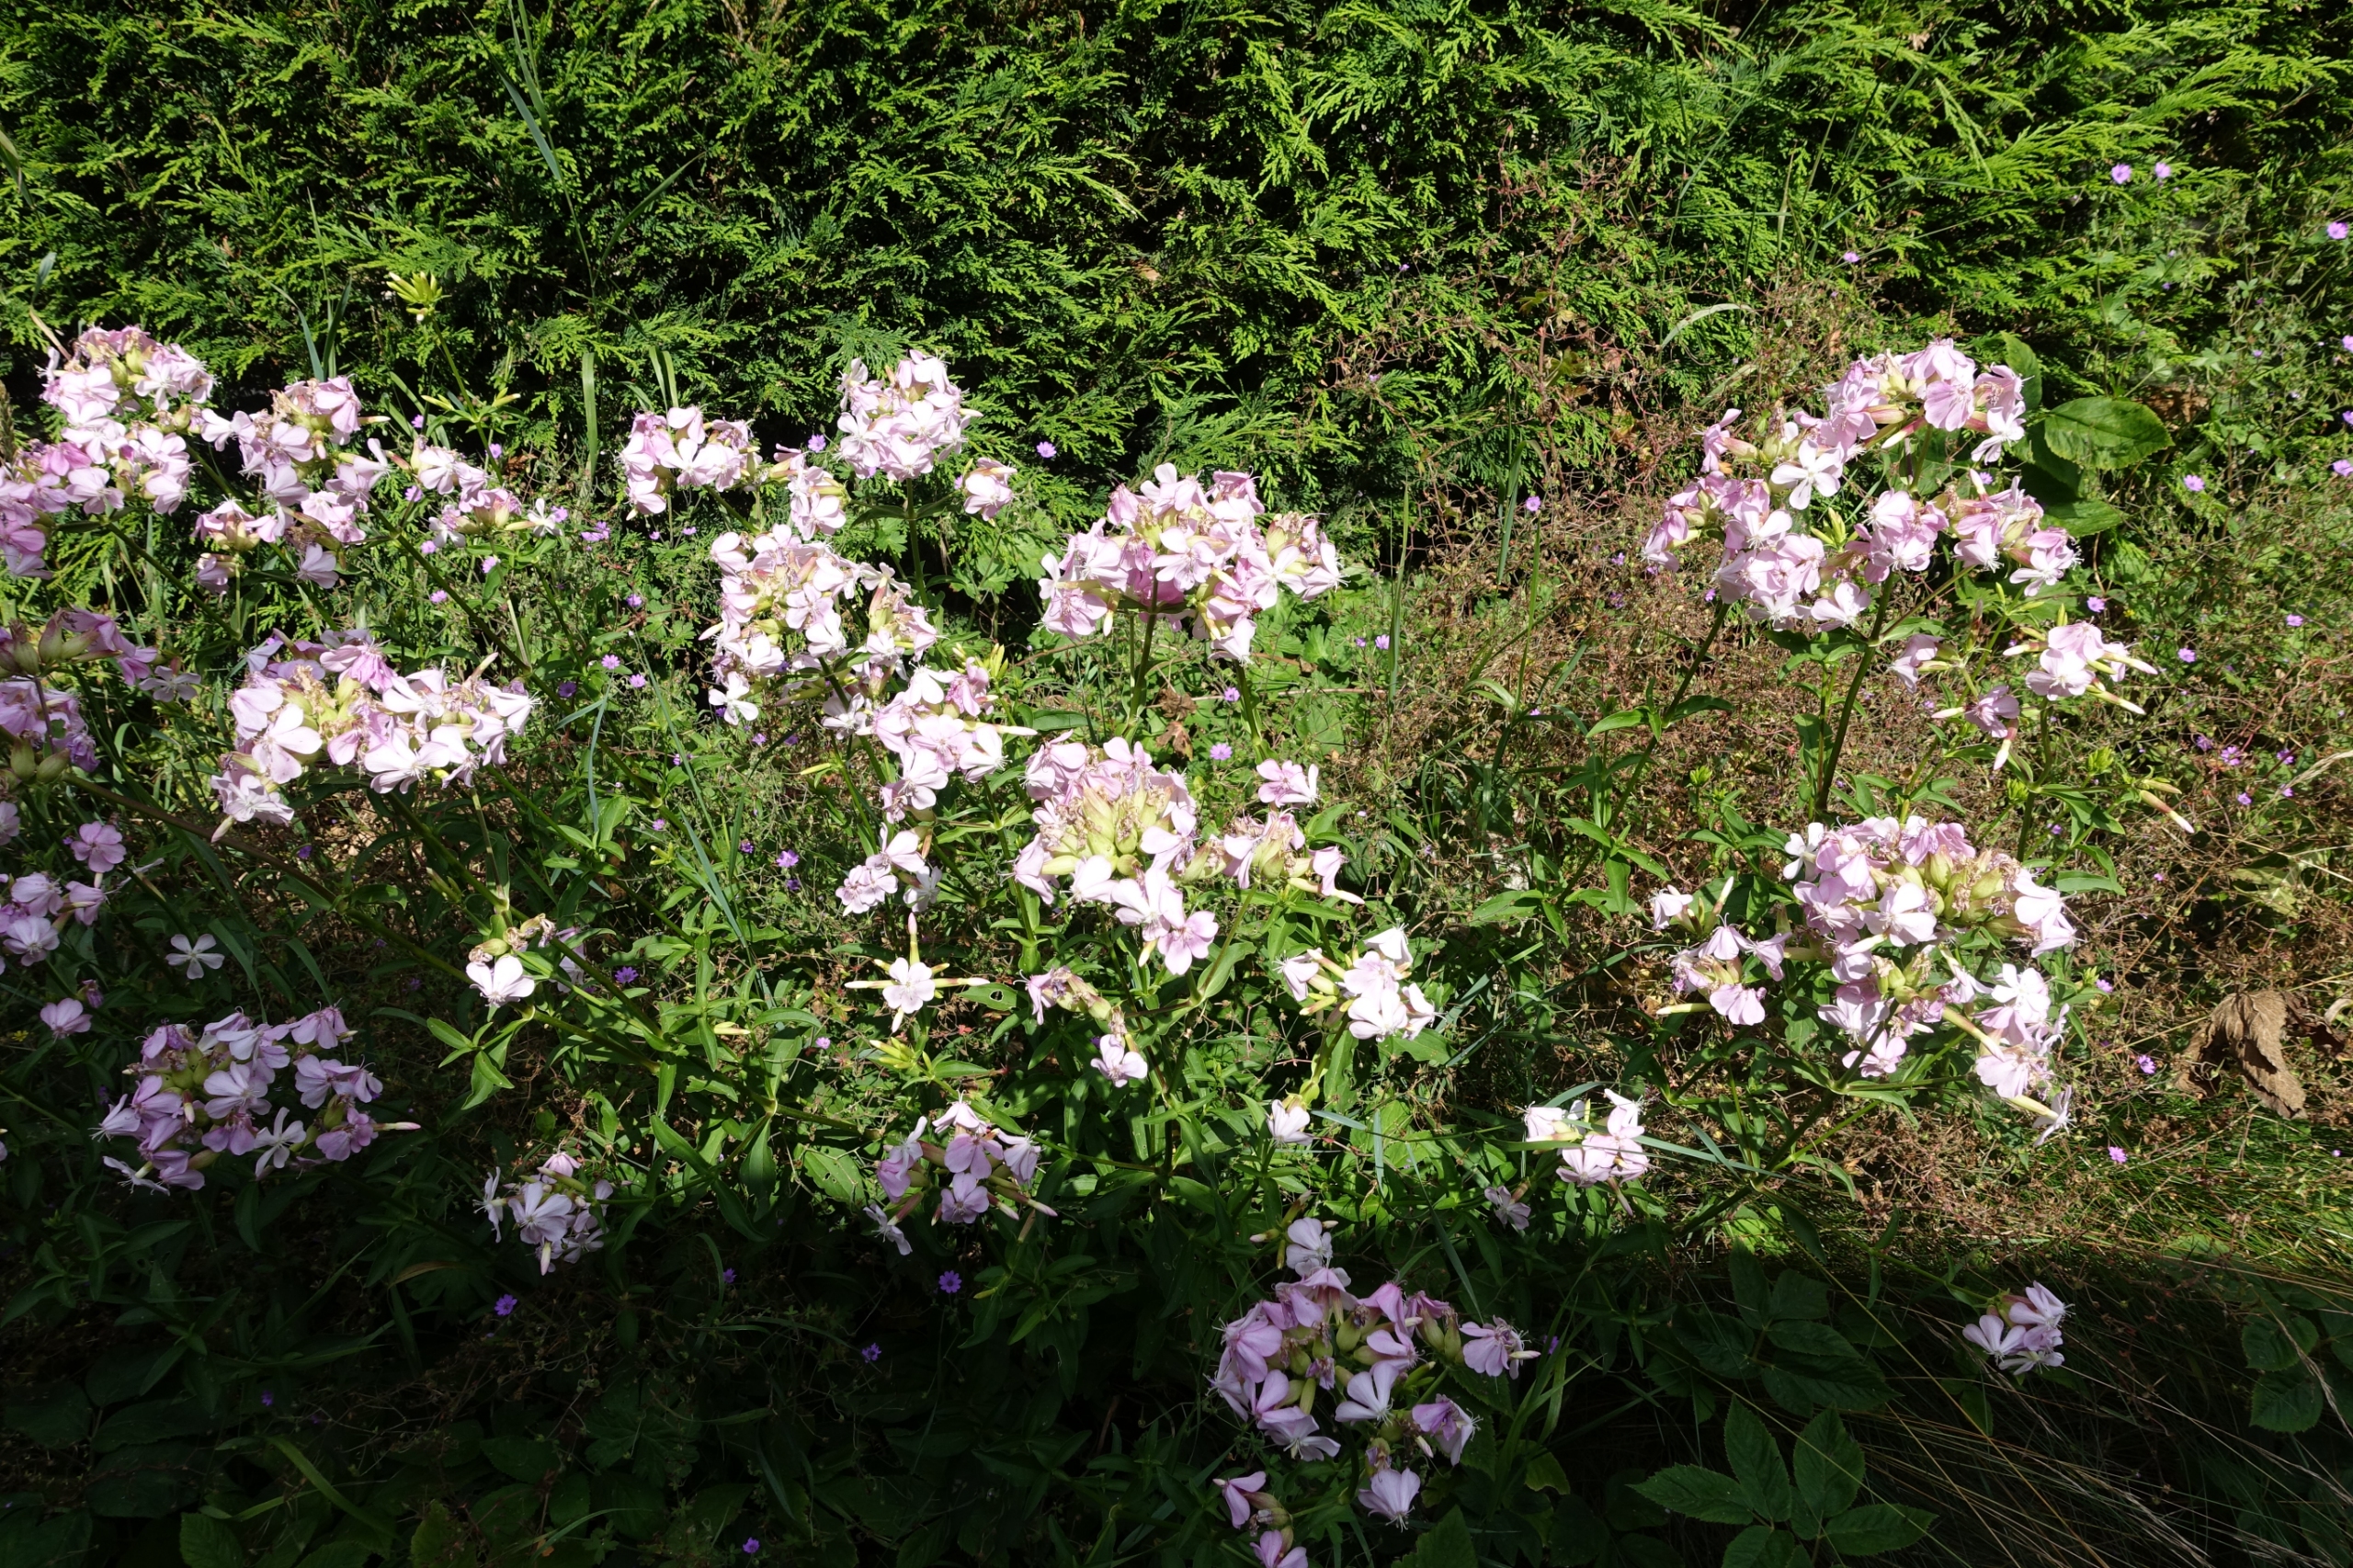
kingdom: Plantae
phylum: Tracheophyta
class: Magnoliopsida
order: Caryophyllales
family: Caryophyllaceae
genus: Saponaria
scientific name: Saponaria officinalis
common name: Sæbeurt
